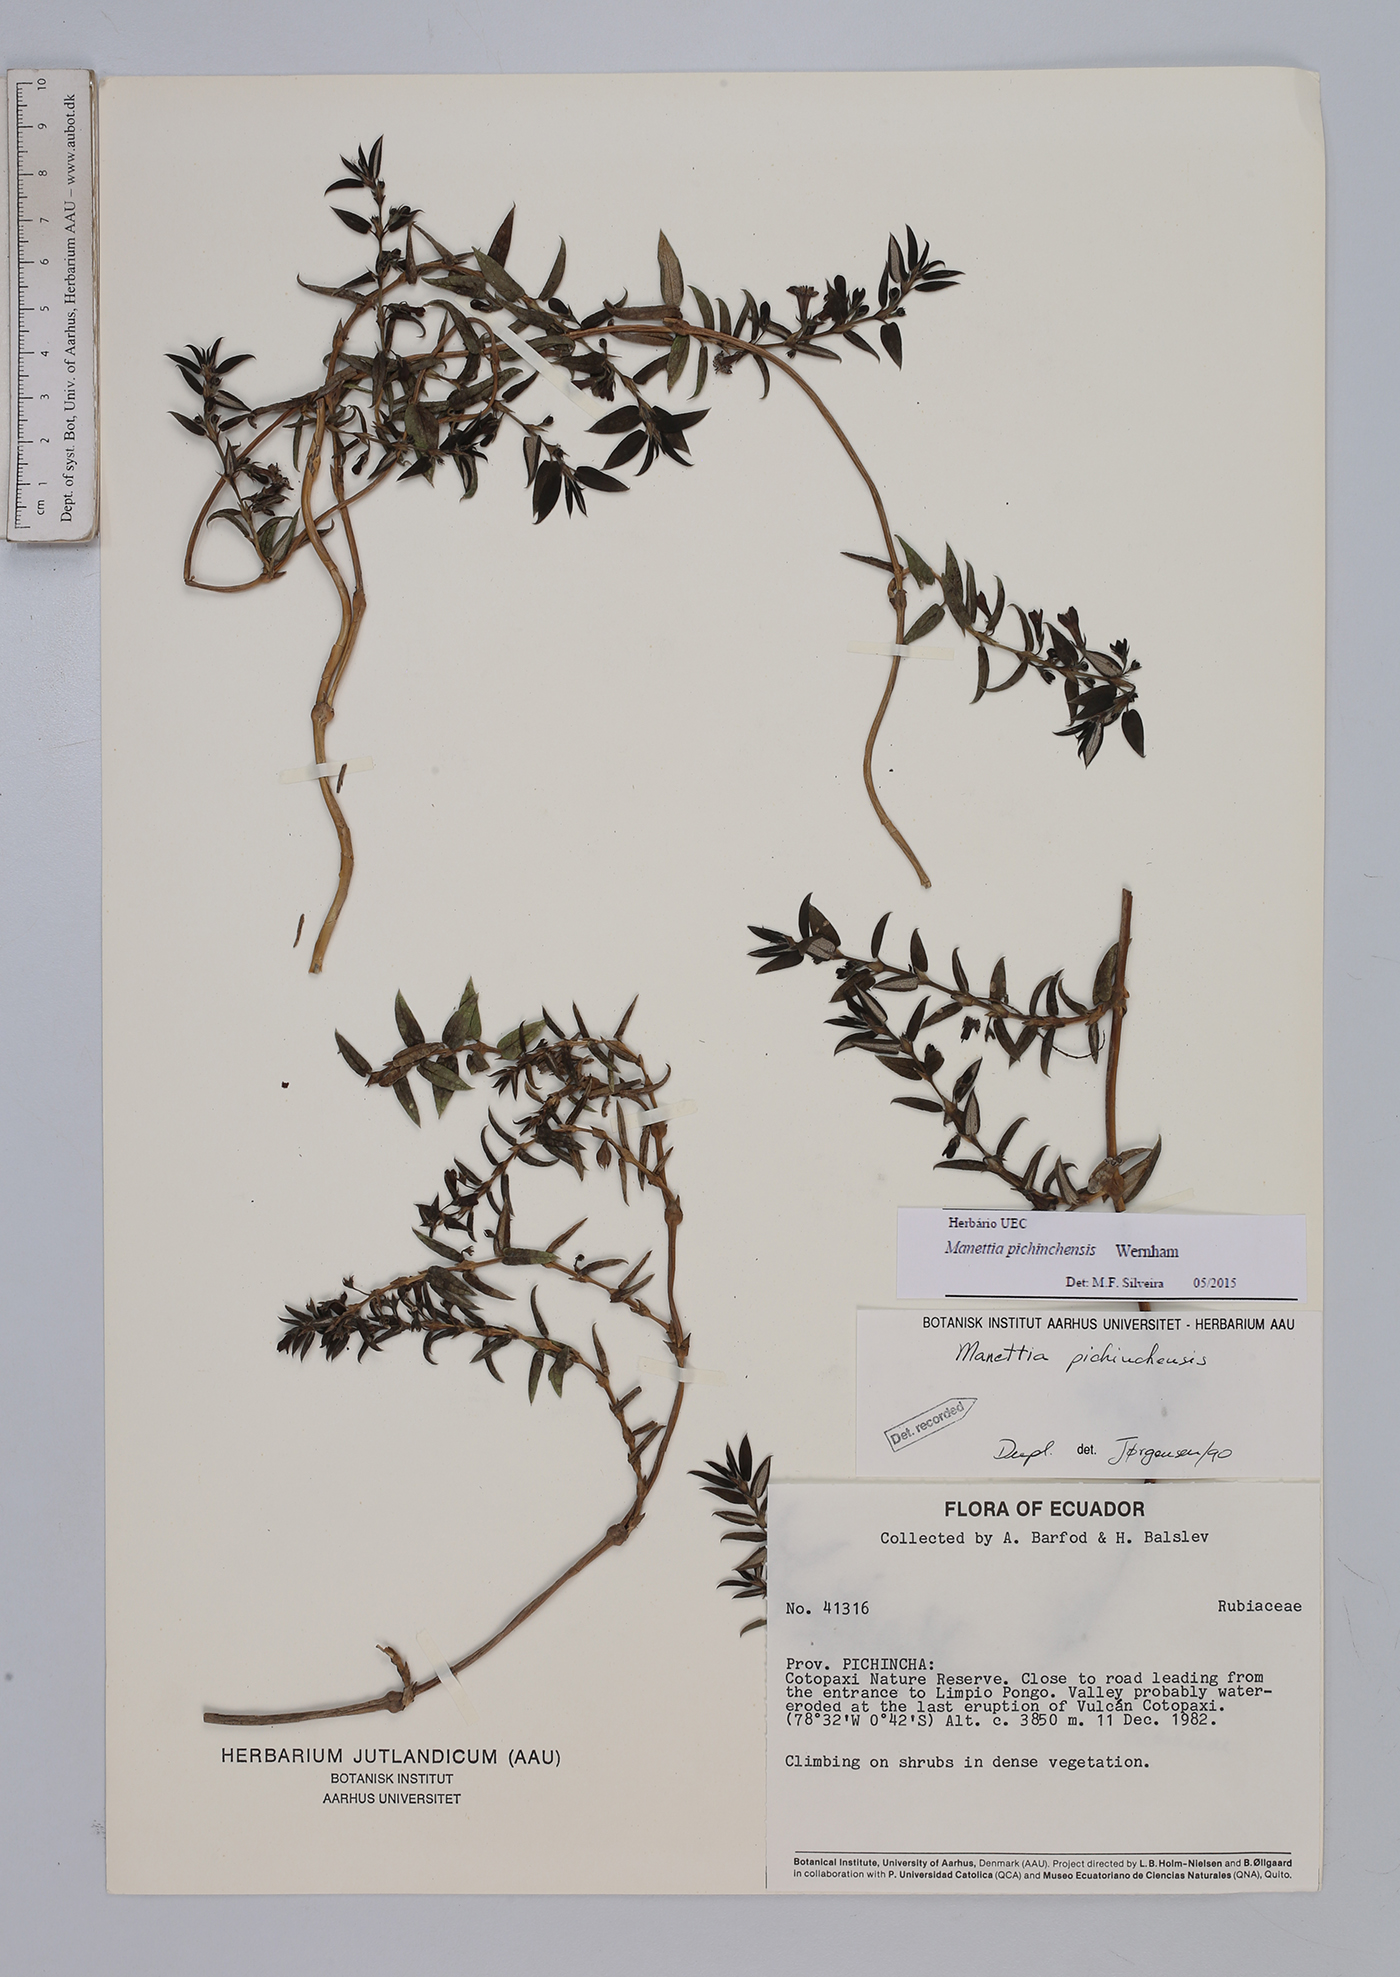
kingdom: Plantae
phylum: Tracheophyta
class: Magnoliopsida
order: Gentianales
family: Rubiaceae
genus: Manettia
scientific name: Manettia pichinchensis
